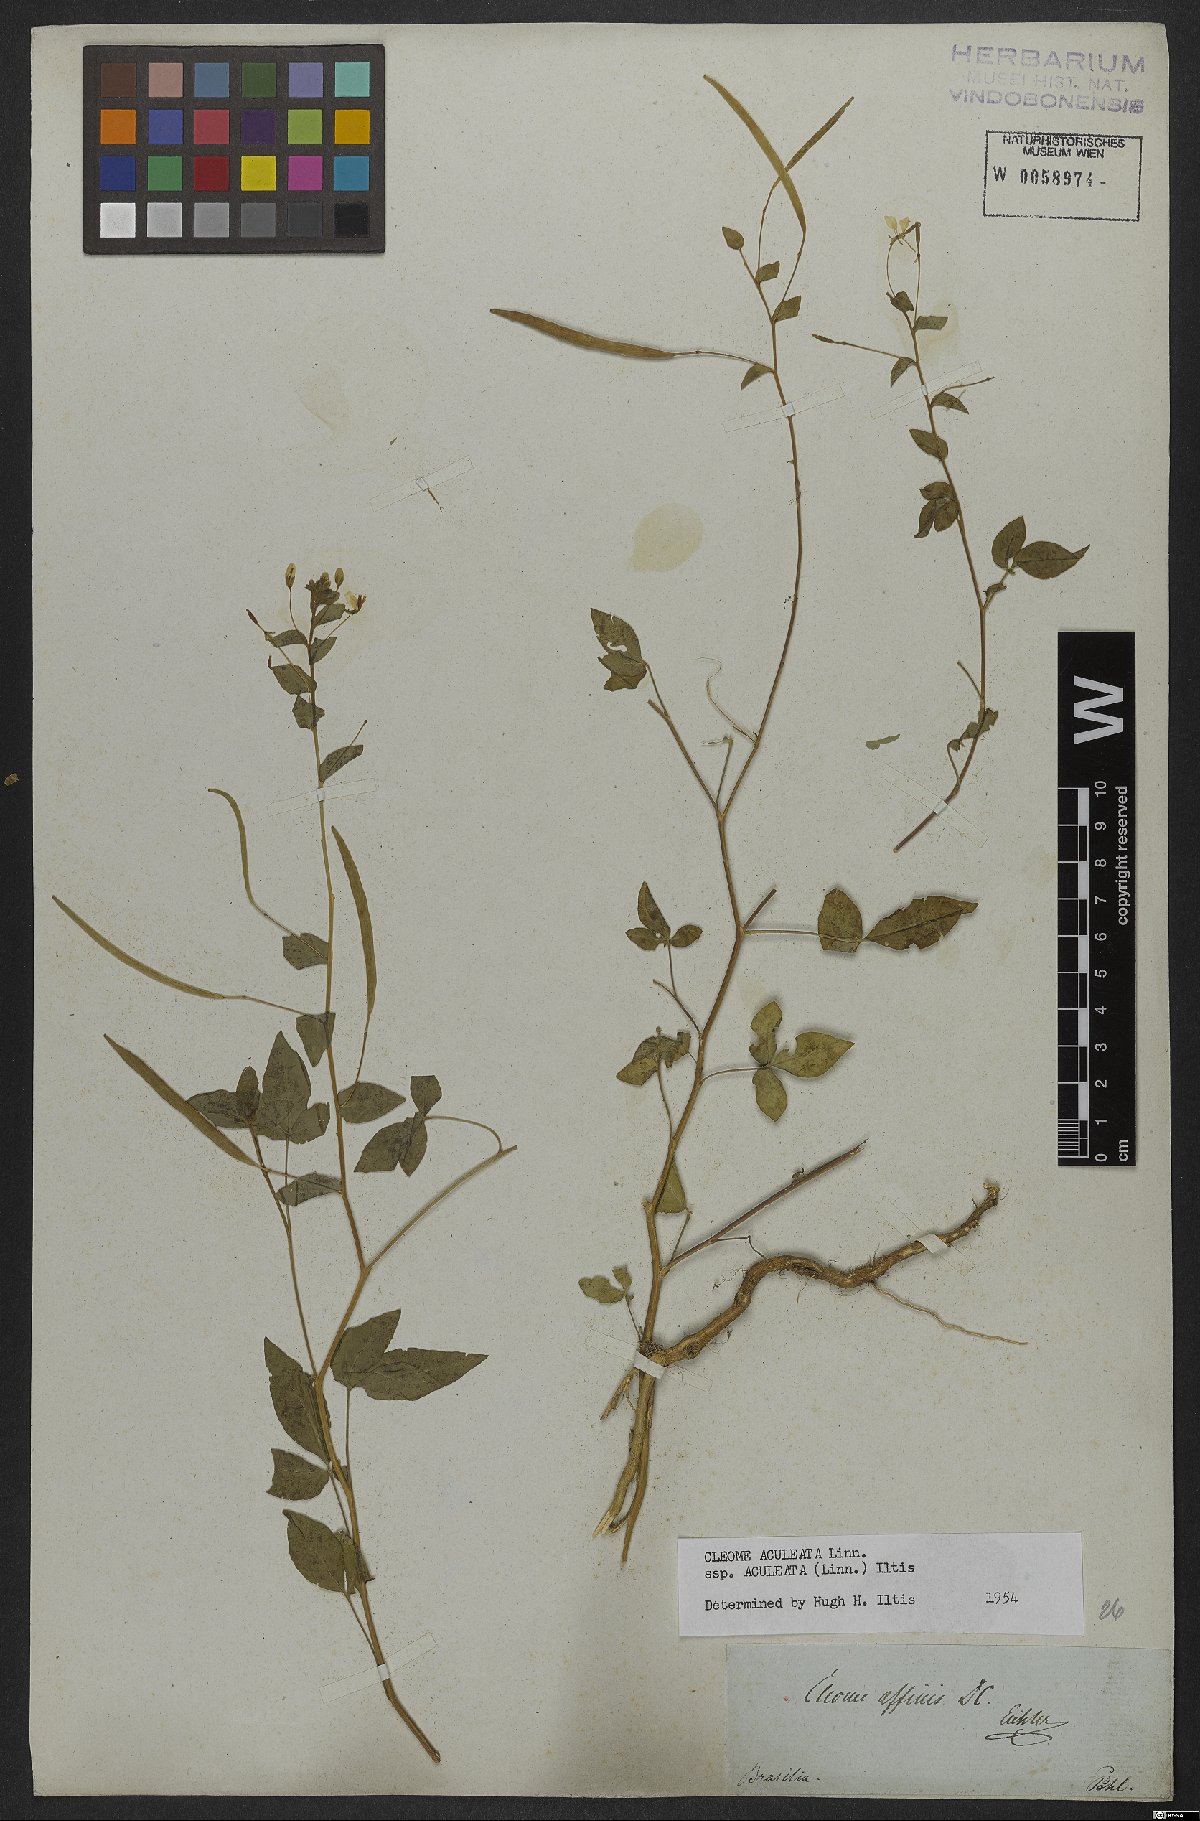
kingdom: Plantae
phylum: Tracheophyta
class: Magnoliopsida
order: Brassicales
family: Cleomaceae
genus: Tarenaya
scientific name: Tarenaya aculeata
